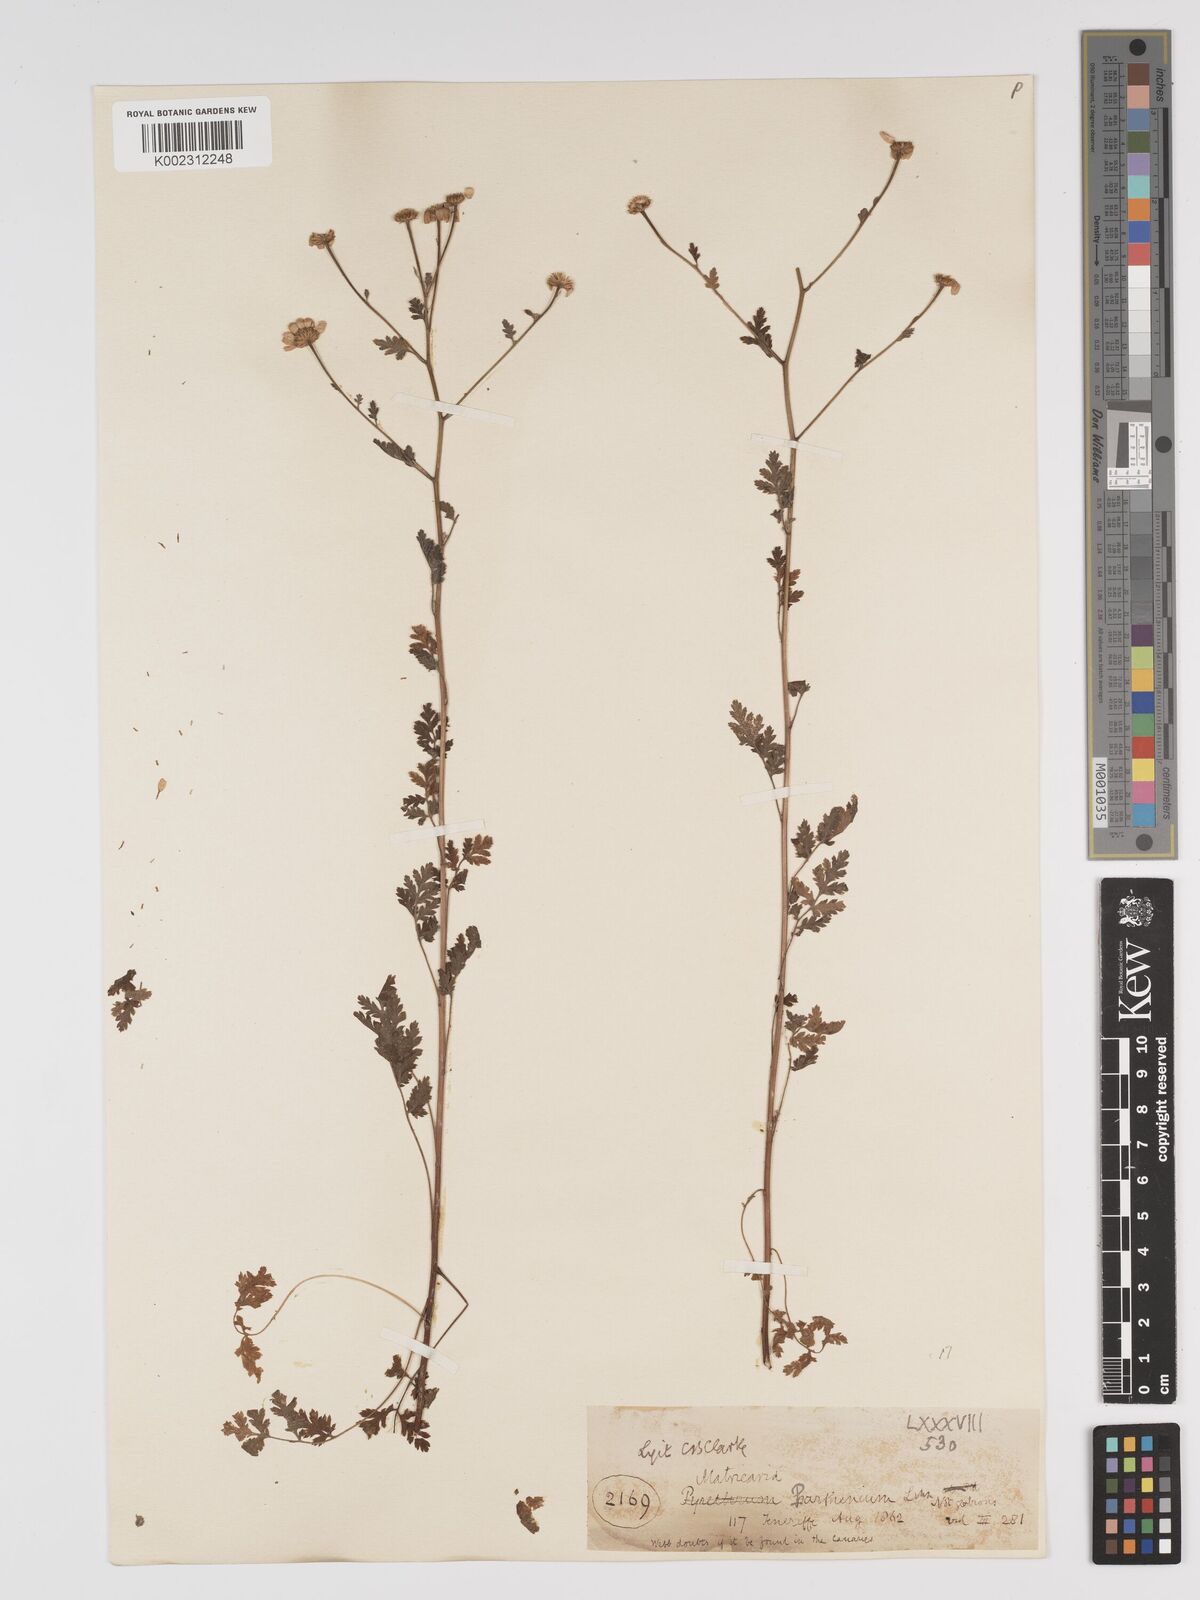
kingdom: Plantae
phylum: Tracheophyta
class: Magnoliopsida
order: Asterales
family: Asteraceae
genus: Tanacetum
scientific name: Tanacetum parthenium
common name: Feverfew
